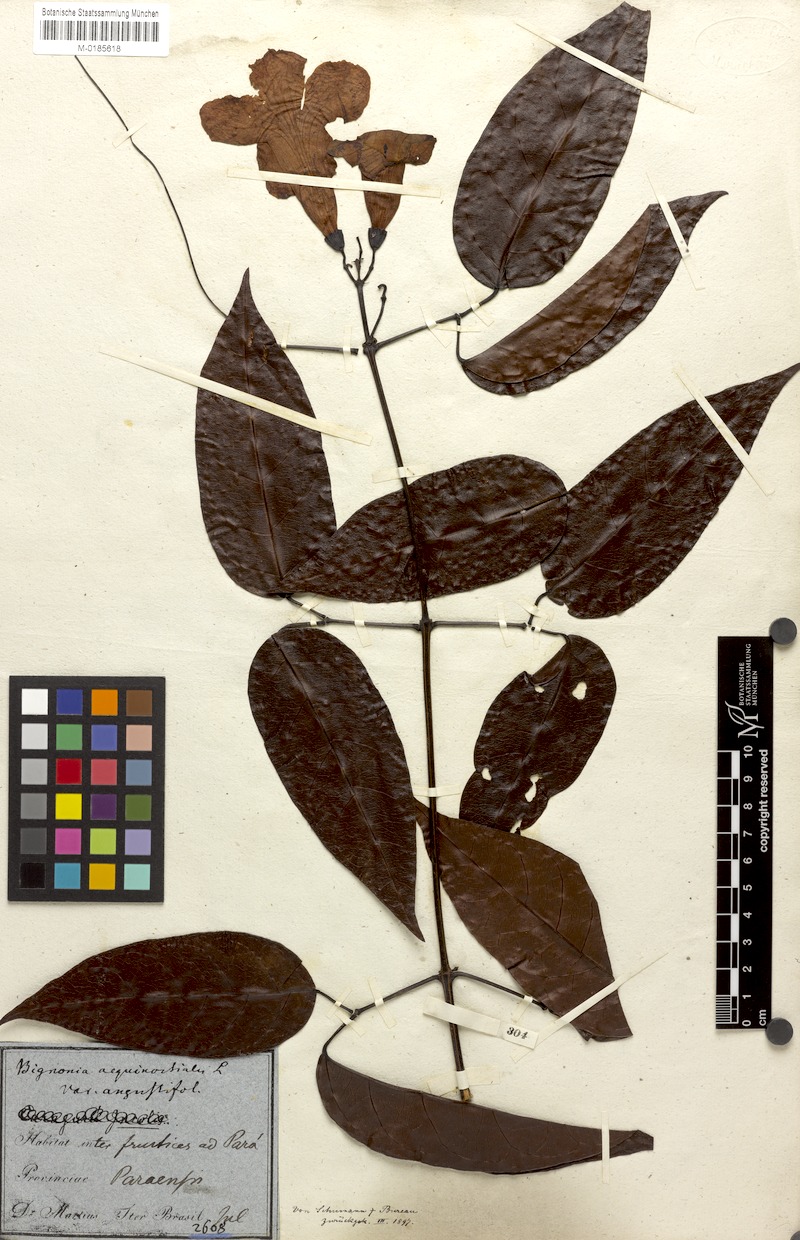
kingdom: Plantae
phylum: Tracheophyta
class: Magnoliopsida
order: Lamiales
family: Bignoniaceae
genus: Bignonia
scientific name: Bignonia aequinoctialis
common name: Garlicvine
